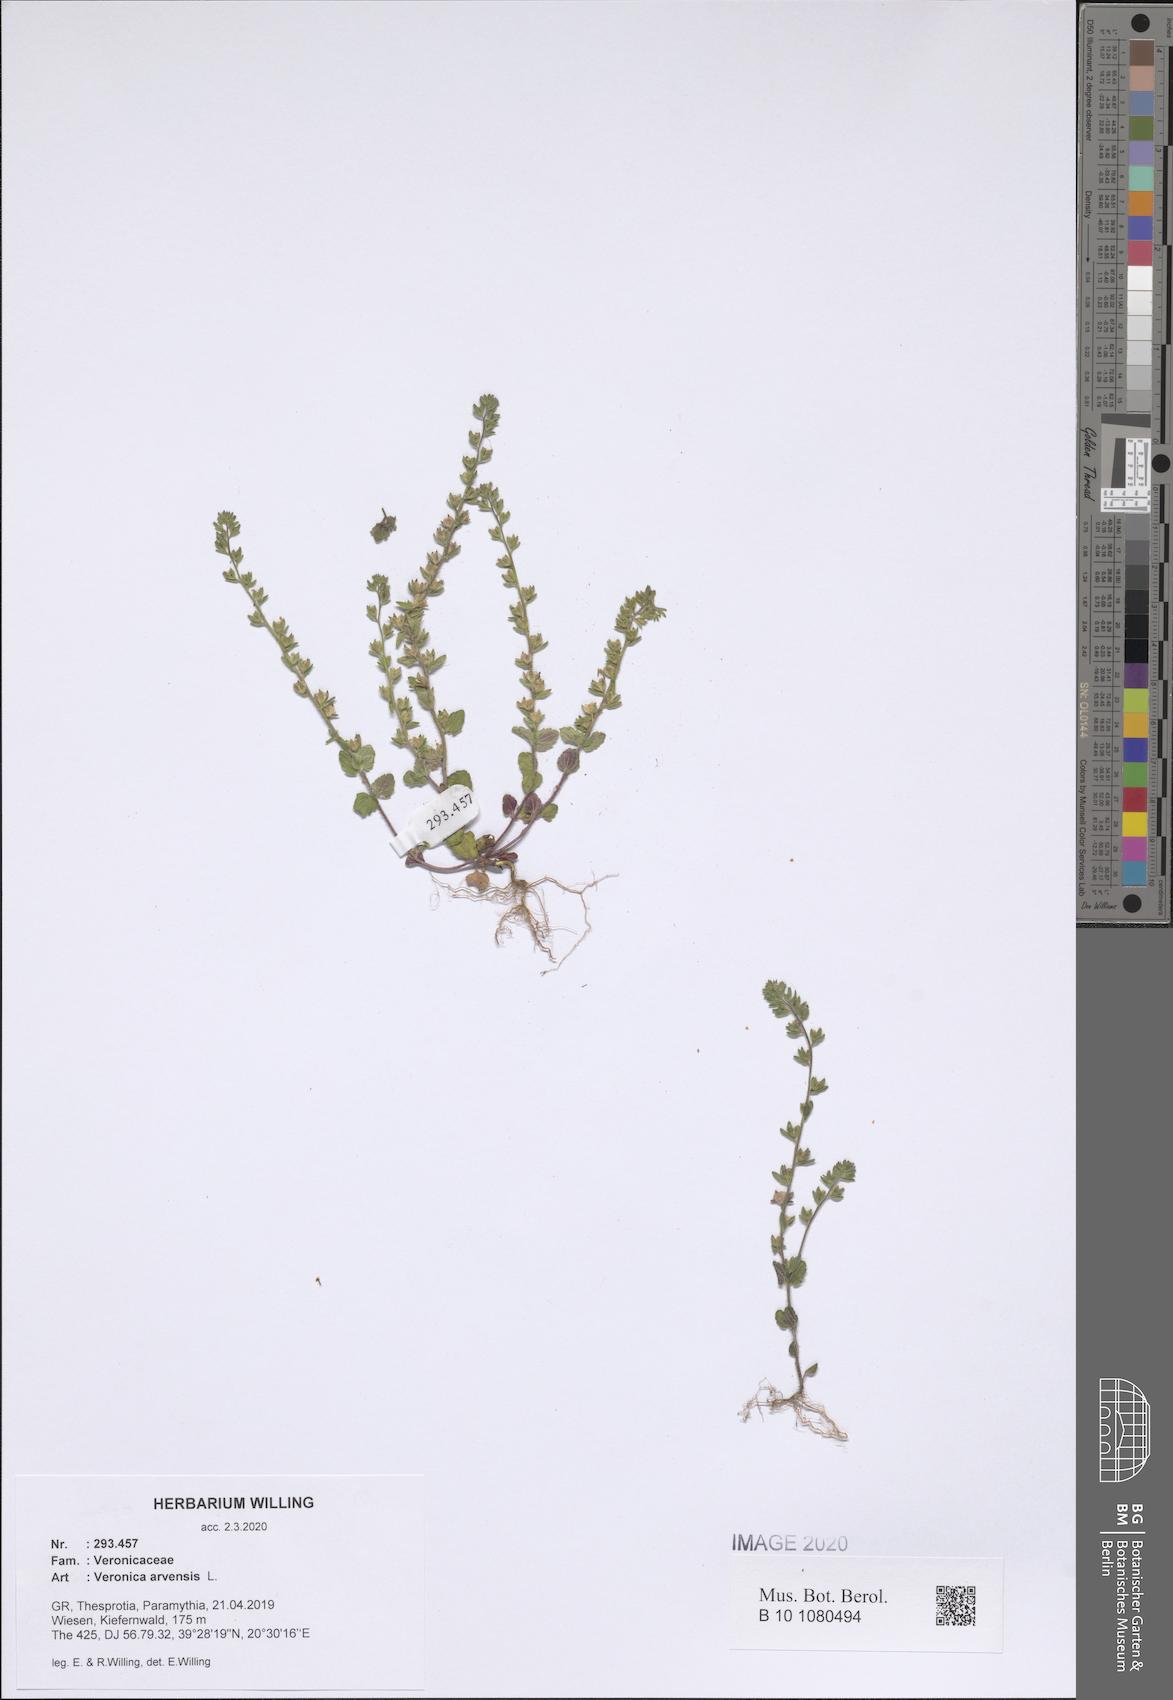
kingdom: Plantae
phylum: Tracheophyta
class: Magnoliopsida
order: Lamiales
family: Plantaginaceae
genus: Veronica
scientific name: Veronica arvensis
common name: Corn speedwell
